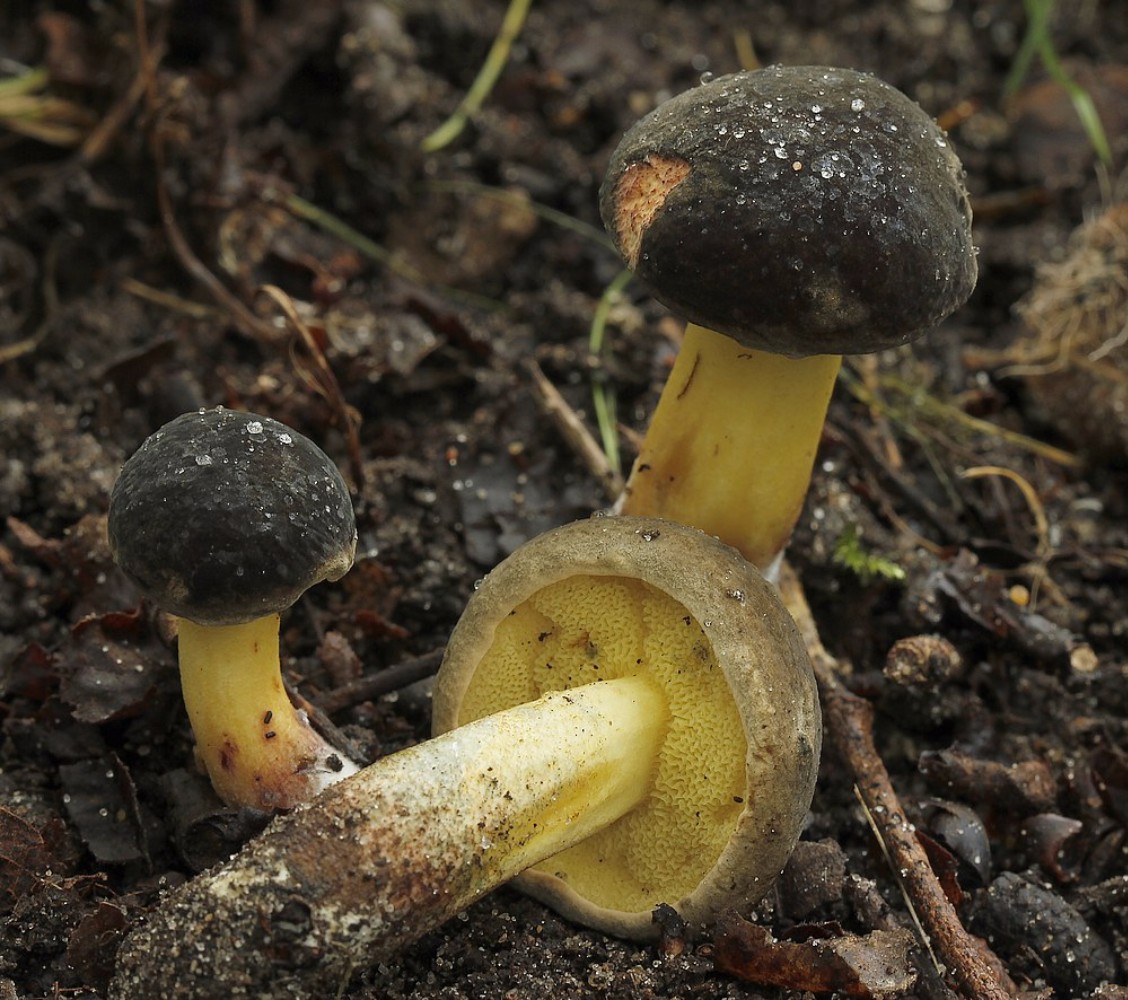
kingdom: Fungi
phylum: Basidiomycota
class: Agaricomycetes
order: Boletales
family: Boletaceae
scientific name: Boletaceae
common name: rørhatfamilien
